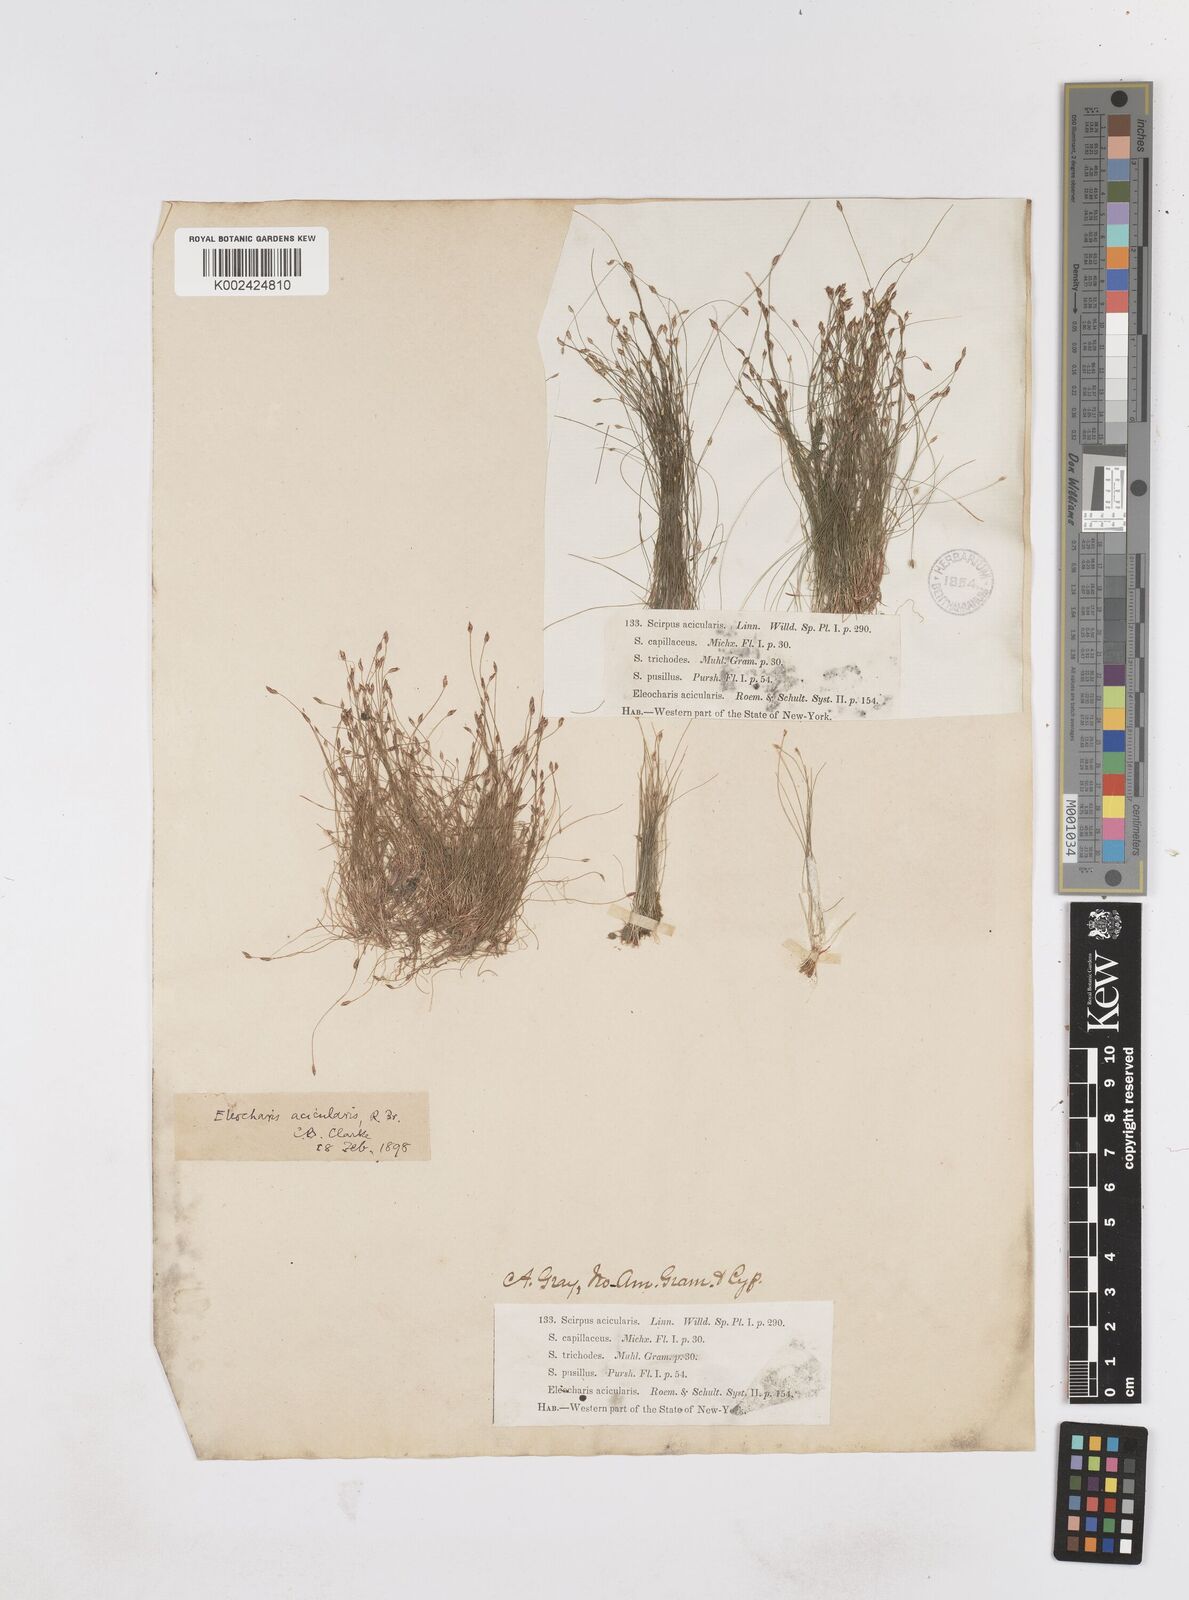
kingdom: Plantae
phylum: Tracheophyta
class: Liliopsida
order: Poales
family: Cyperaceae
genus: Eleocharis
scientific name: Eleocharis acicularis
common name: Needle spike-rush
